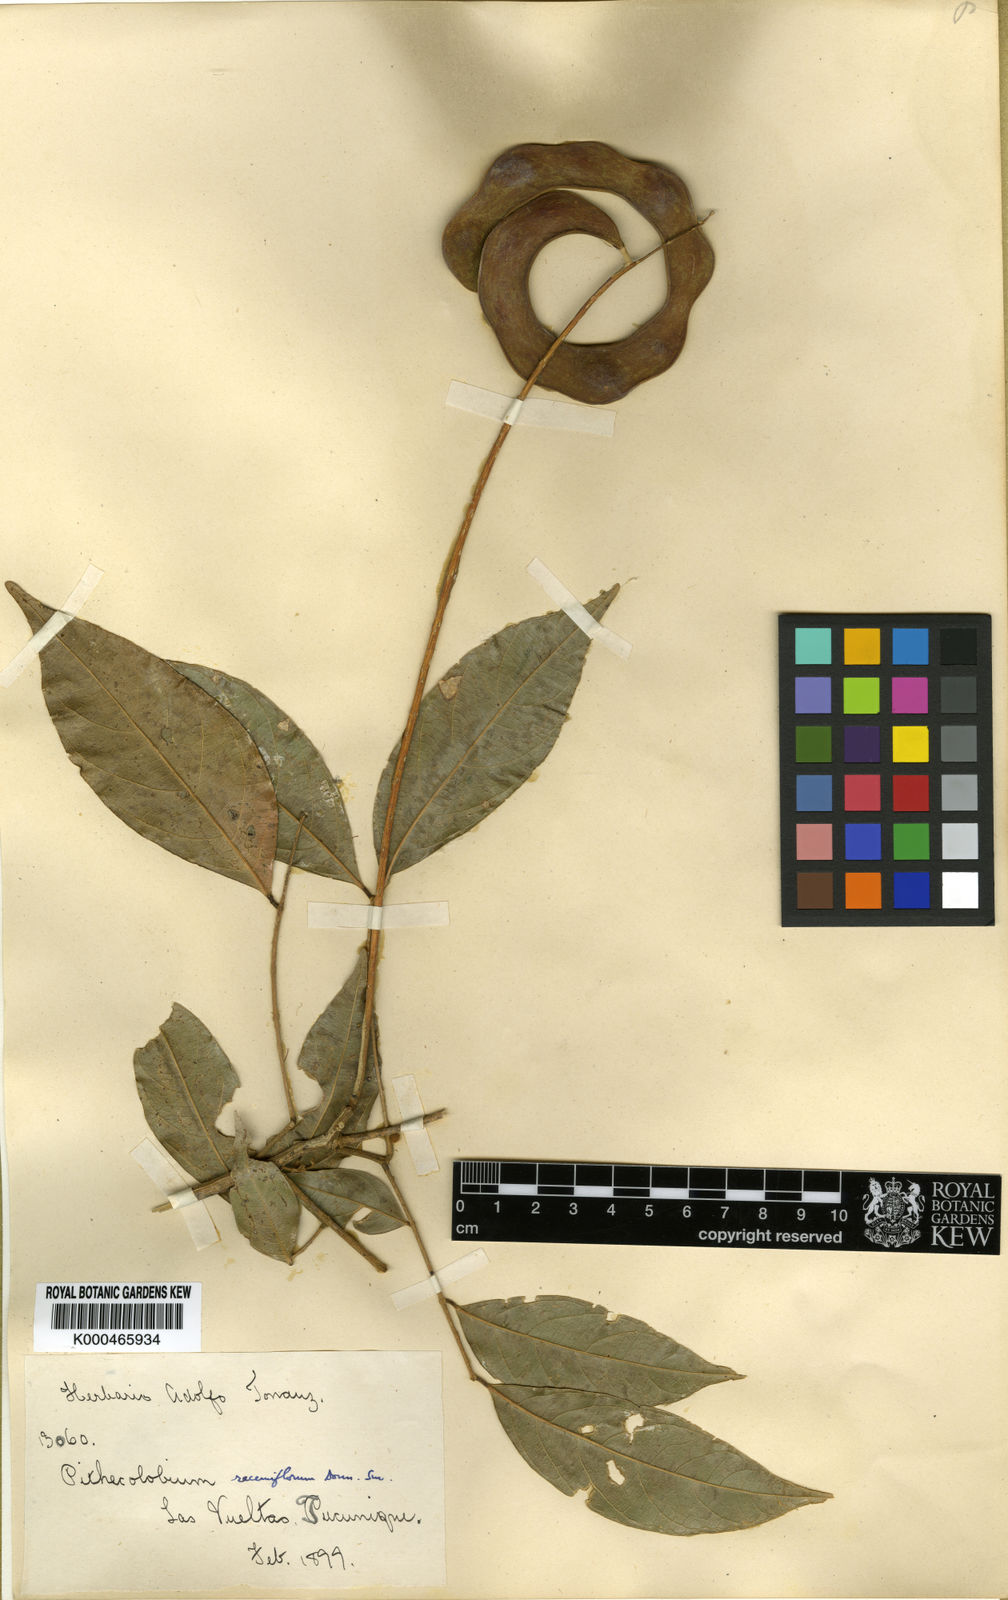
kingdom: Plantae
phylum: Tracheophyta
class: Magnoliopsida
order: Fabales
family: Fabaceae
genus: Punjuba
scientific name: Punjuba racemiflora
